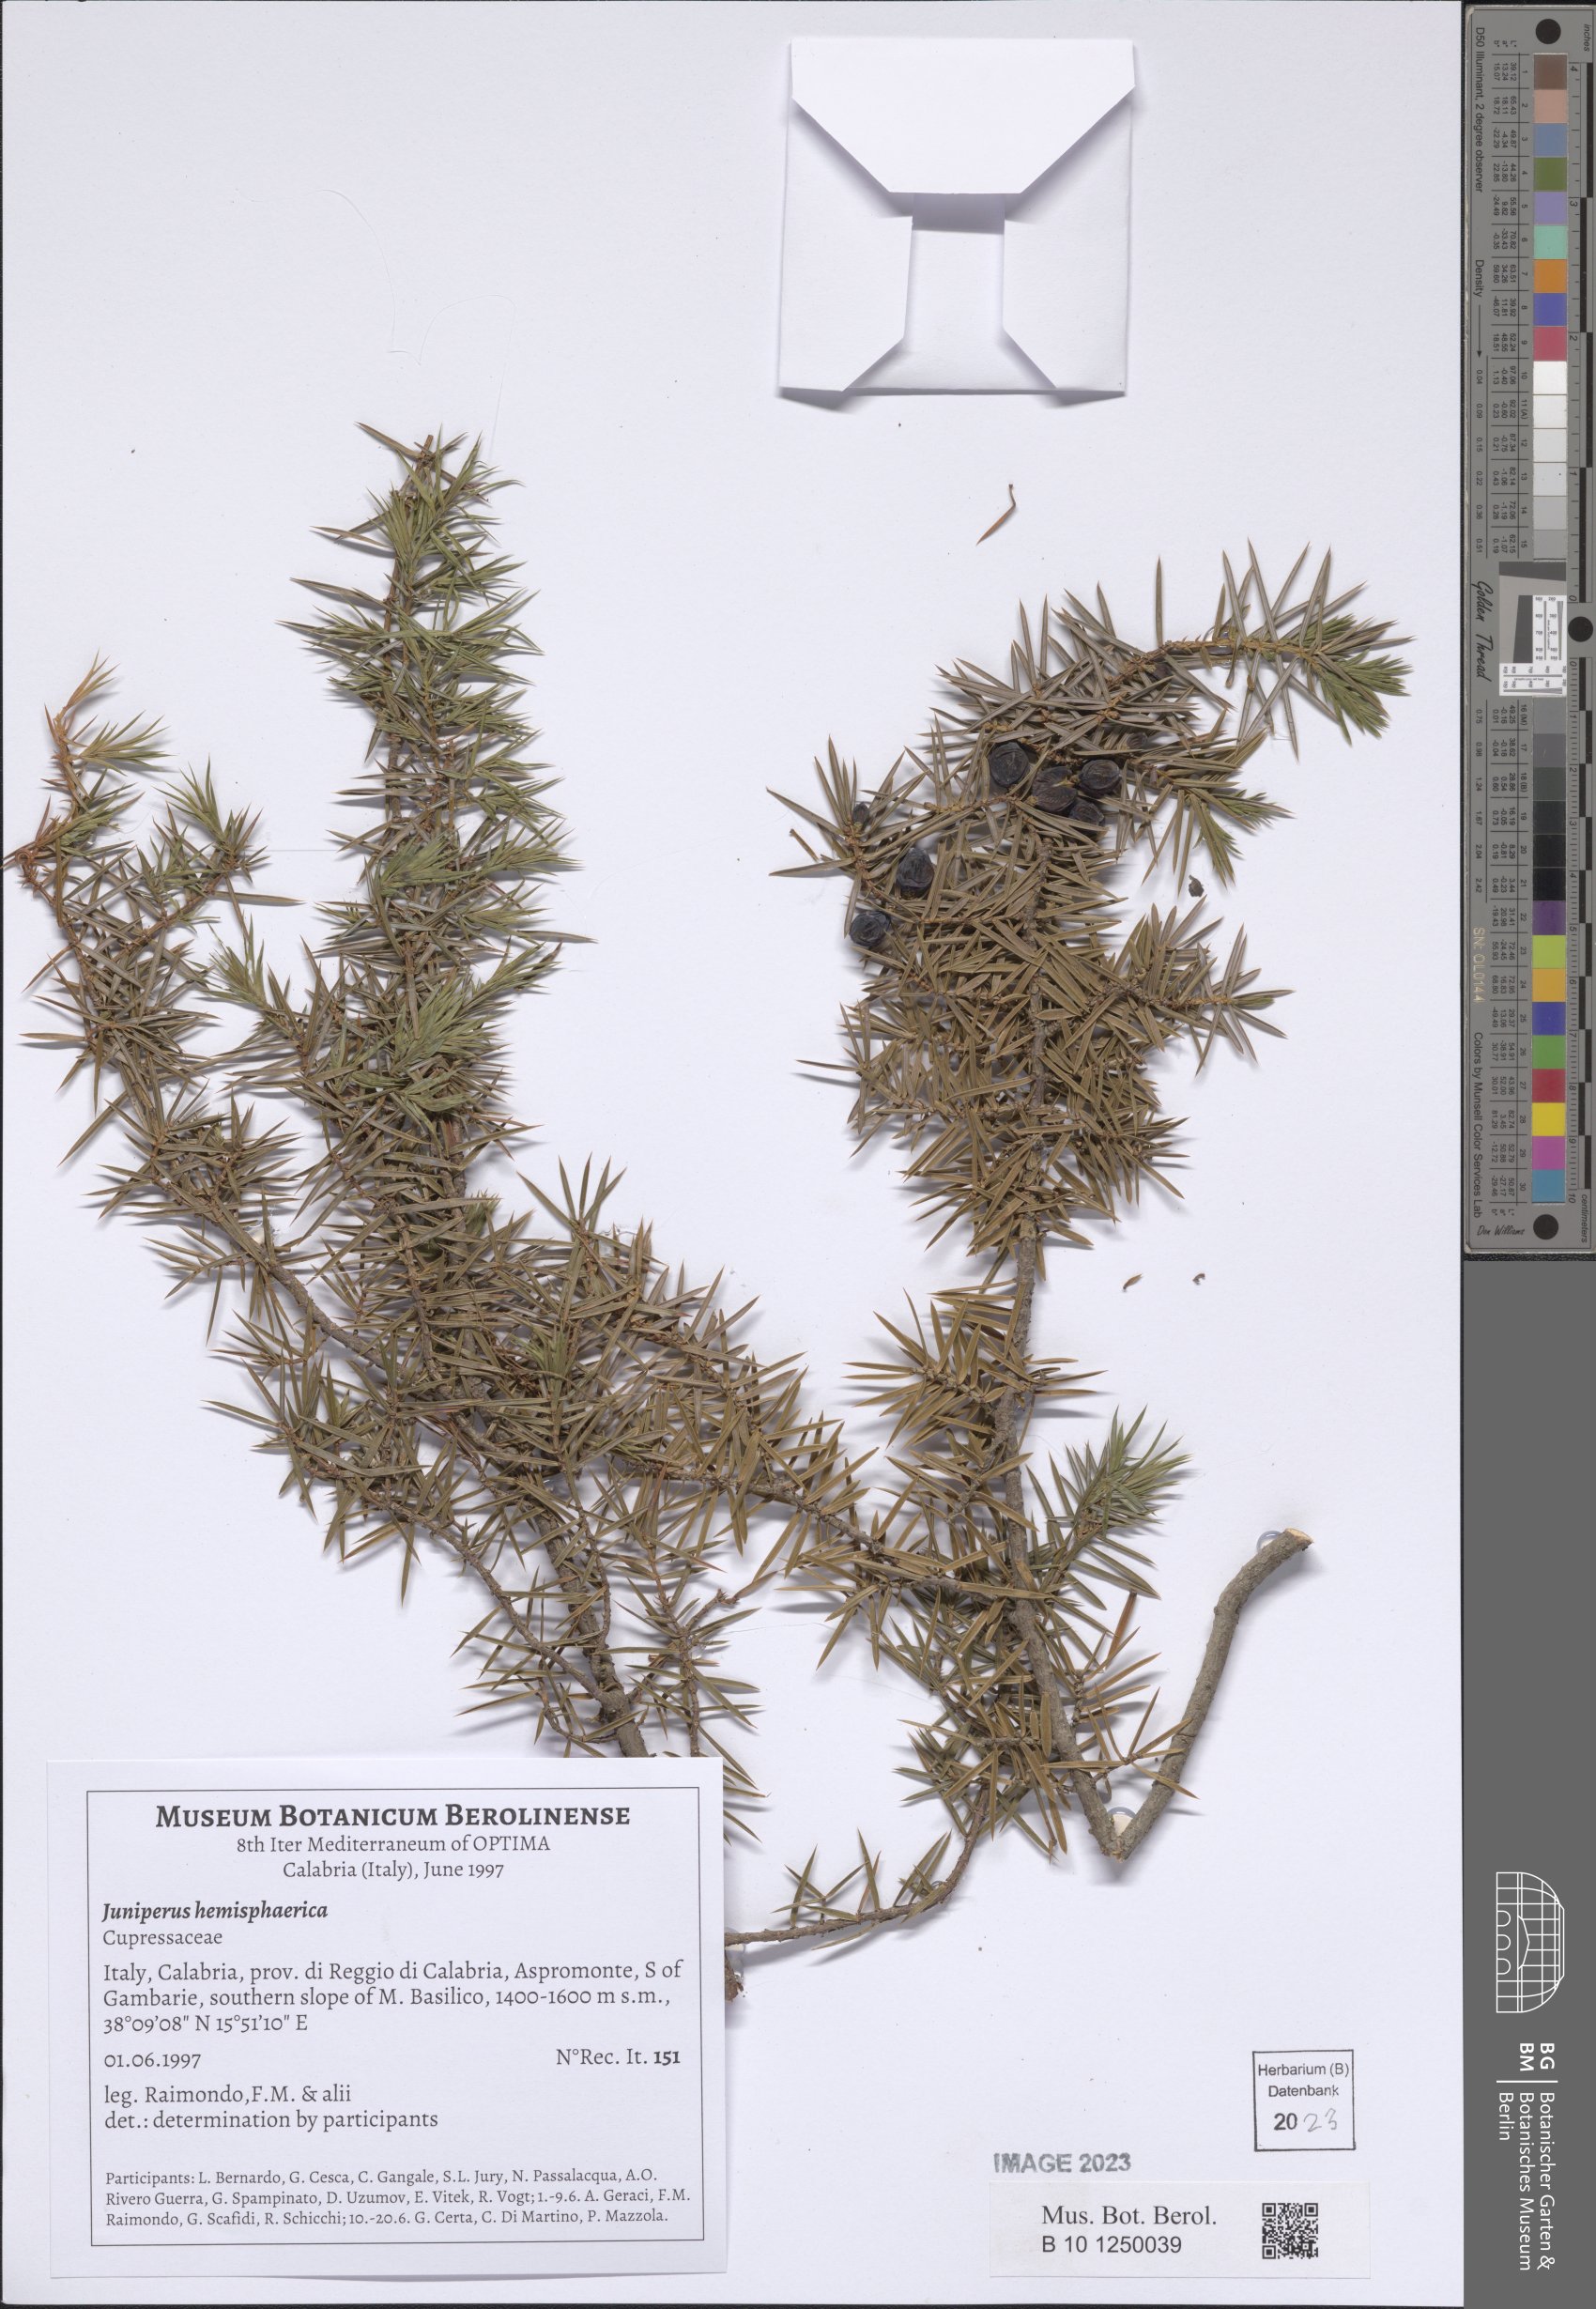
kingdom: Plantae
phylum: Tracheophyta
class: Pinopsida
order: Pinales
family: Cupressaceae
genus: Juniperus
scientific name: Juniperus communis
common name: Common juniper
